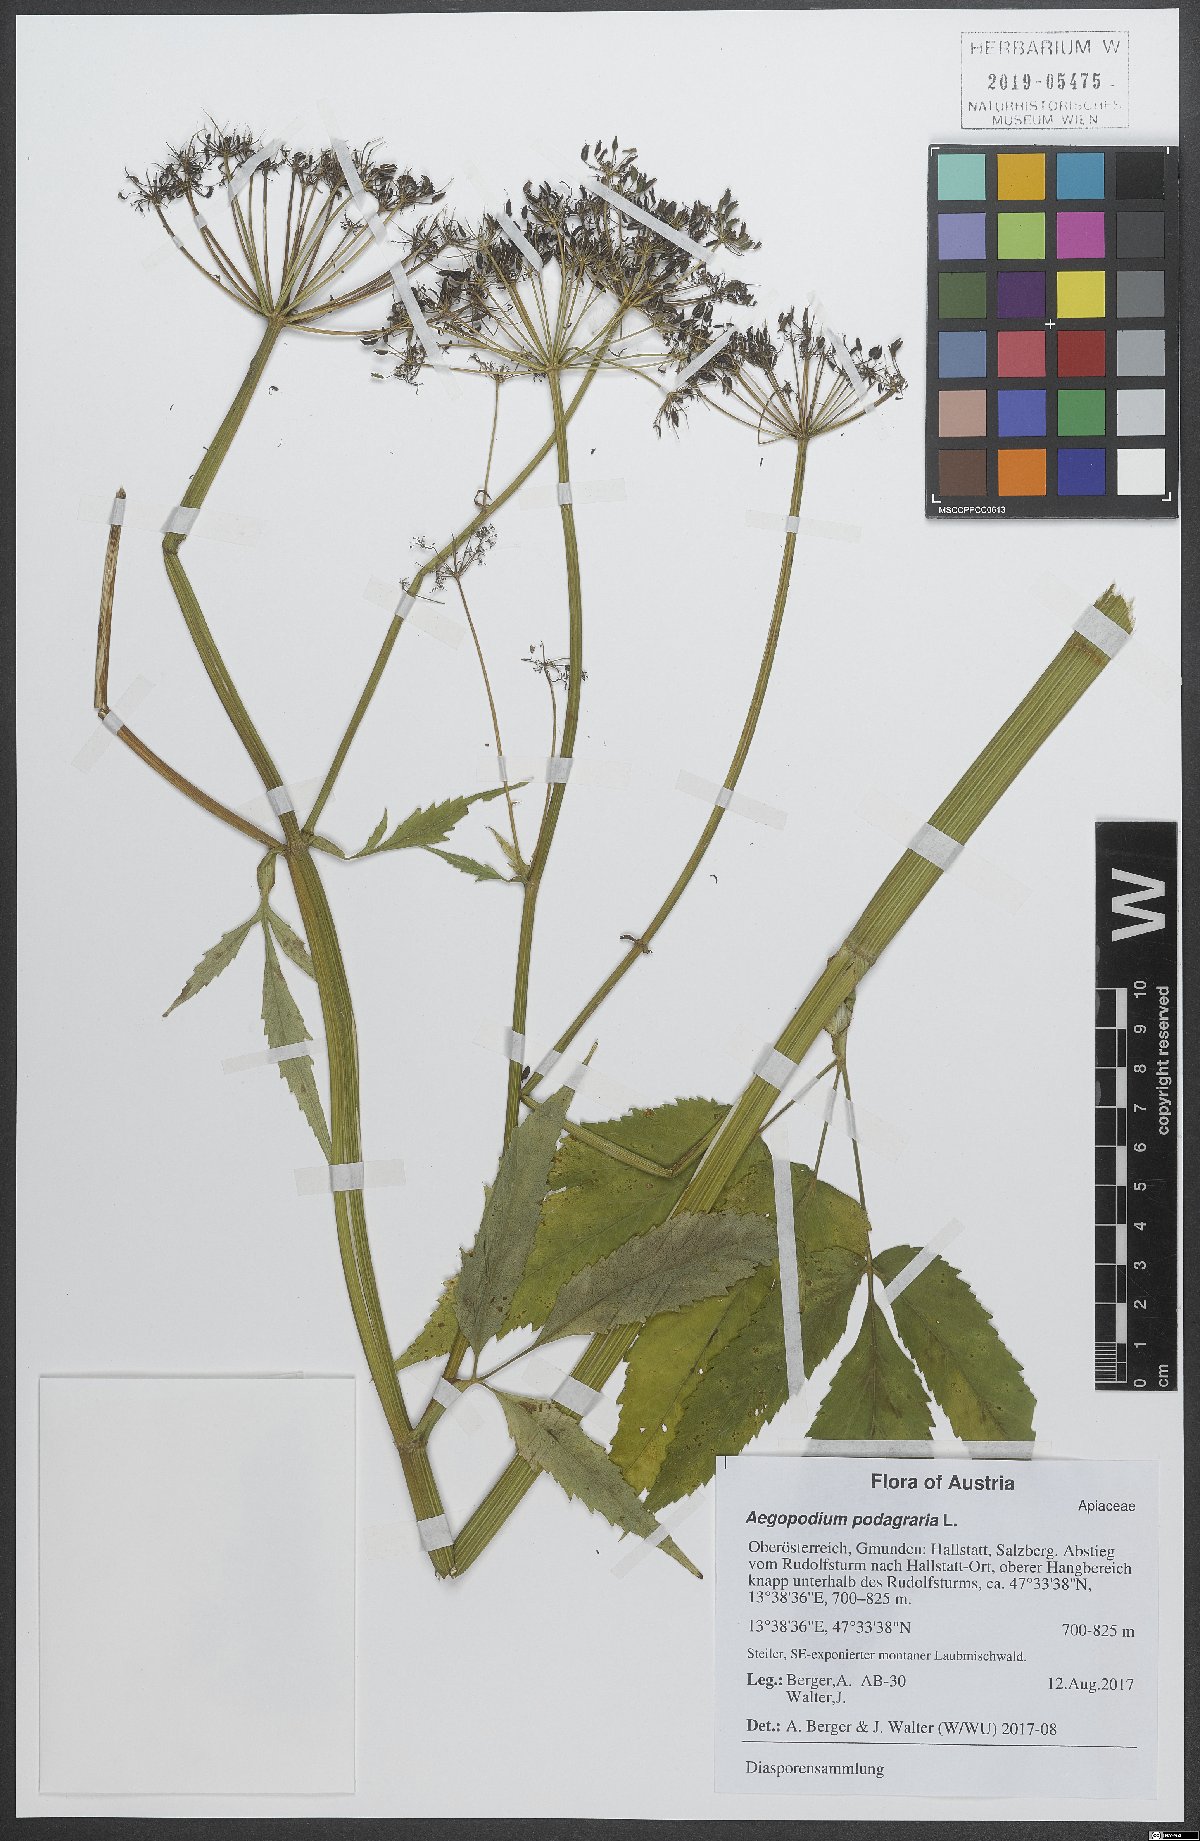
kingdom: Plantae
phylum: Tracheophyta
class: Magnoliopsida
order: Apiales
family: Apiaceae
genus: Aegopodium
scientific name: Aegopodium podagraria
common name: Ground-elder
